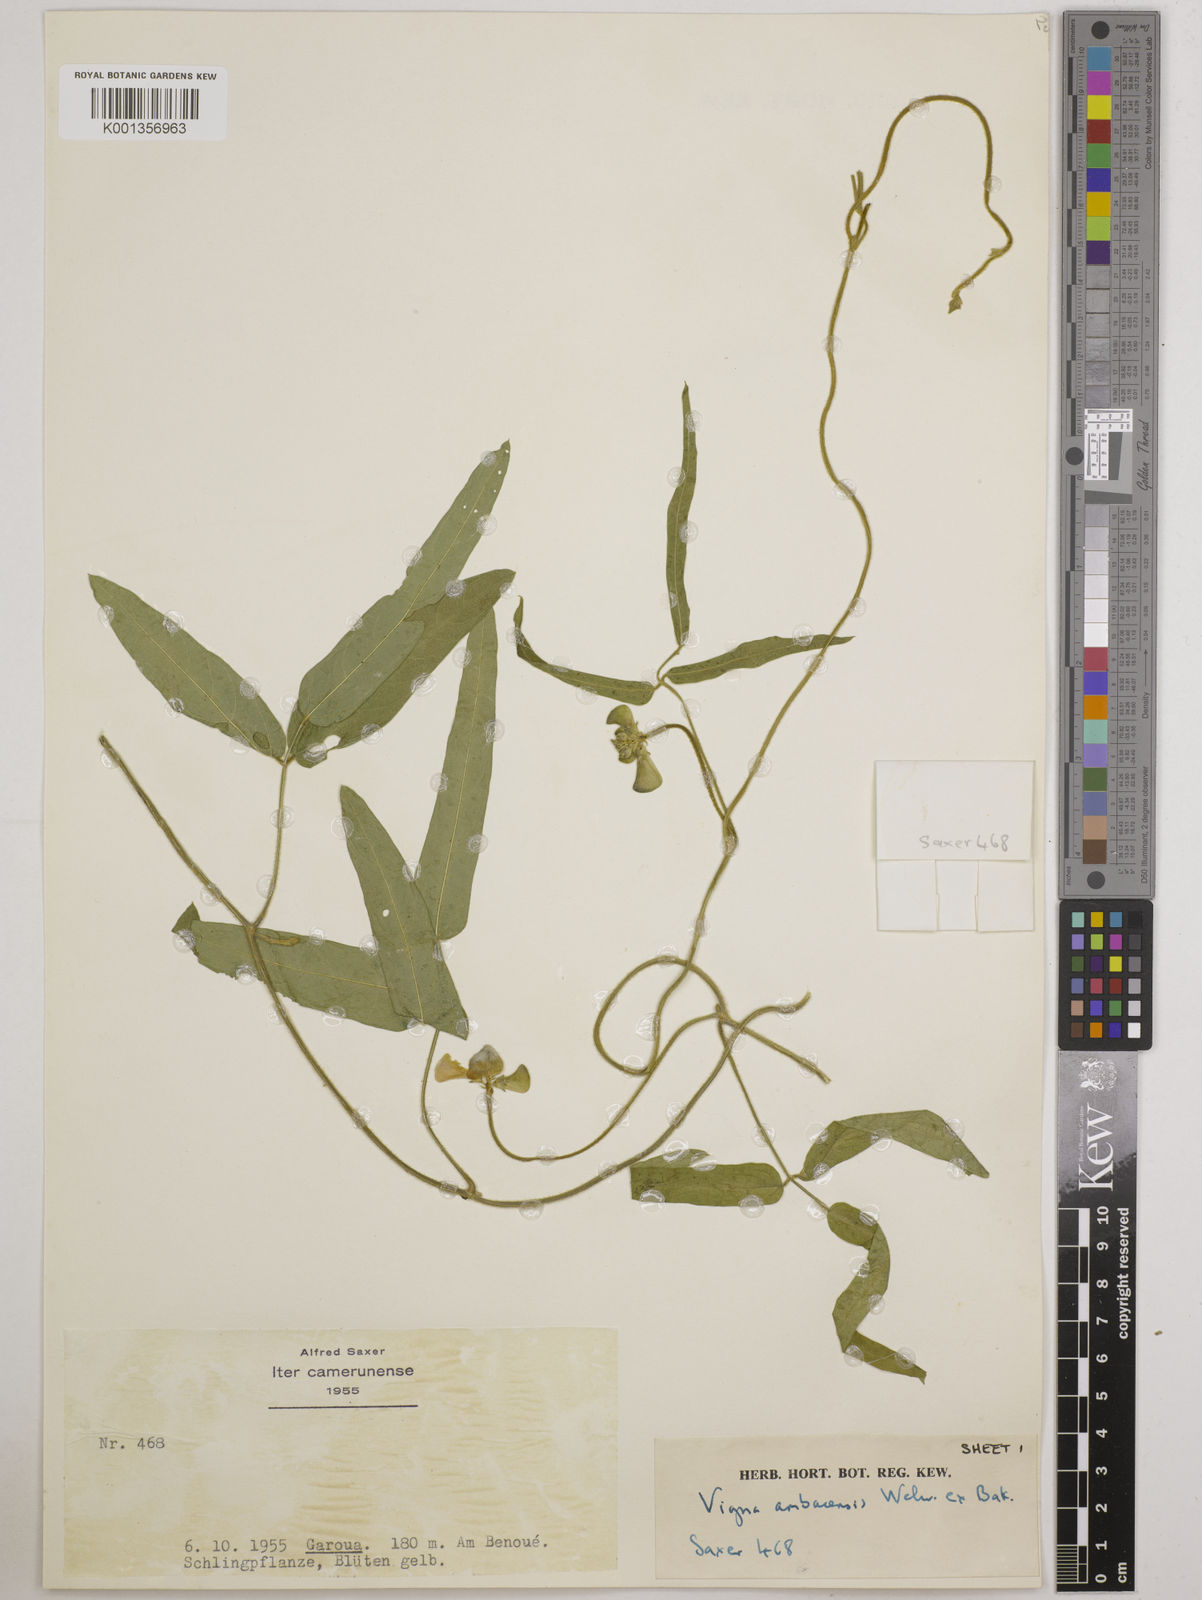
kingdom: Plantae
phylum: Tracheophyta
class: Magnoliopsida
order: Fabales
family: Fabaceae
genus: Vigna
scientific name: Vigna ambacensis
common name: Tsarkiyan zomo
